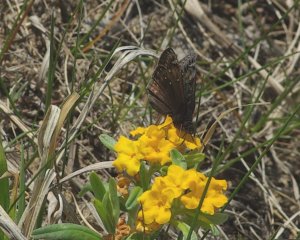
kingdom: Animalia
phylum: Arthropoda
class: Insecta
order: Lepidoptera
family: Hesperiidae
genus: Gesta
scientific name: Gesta
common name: Juvenal's Duskywing
